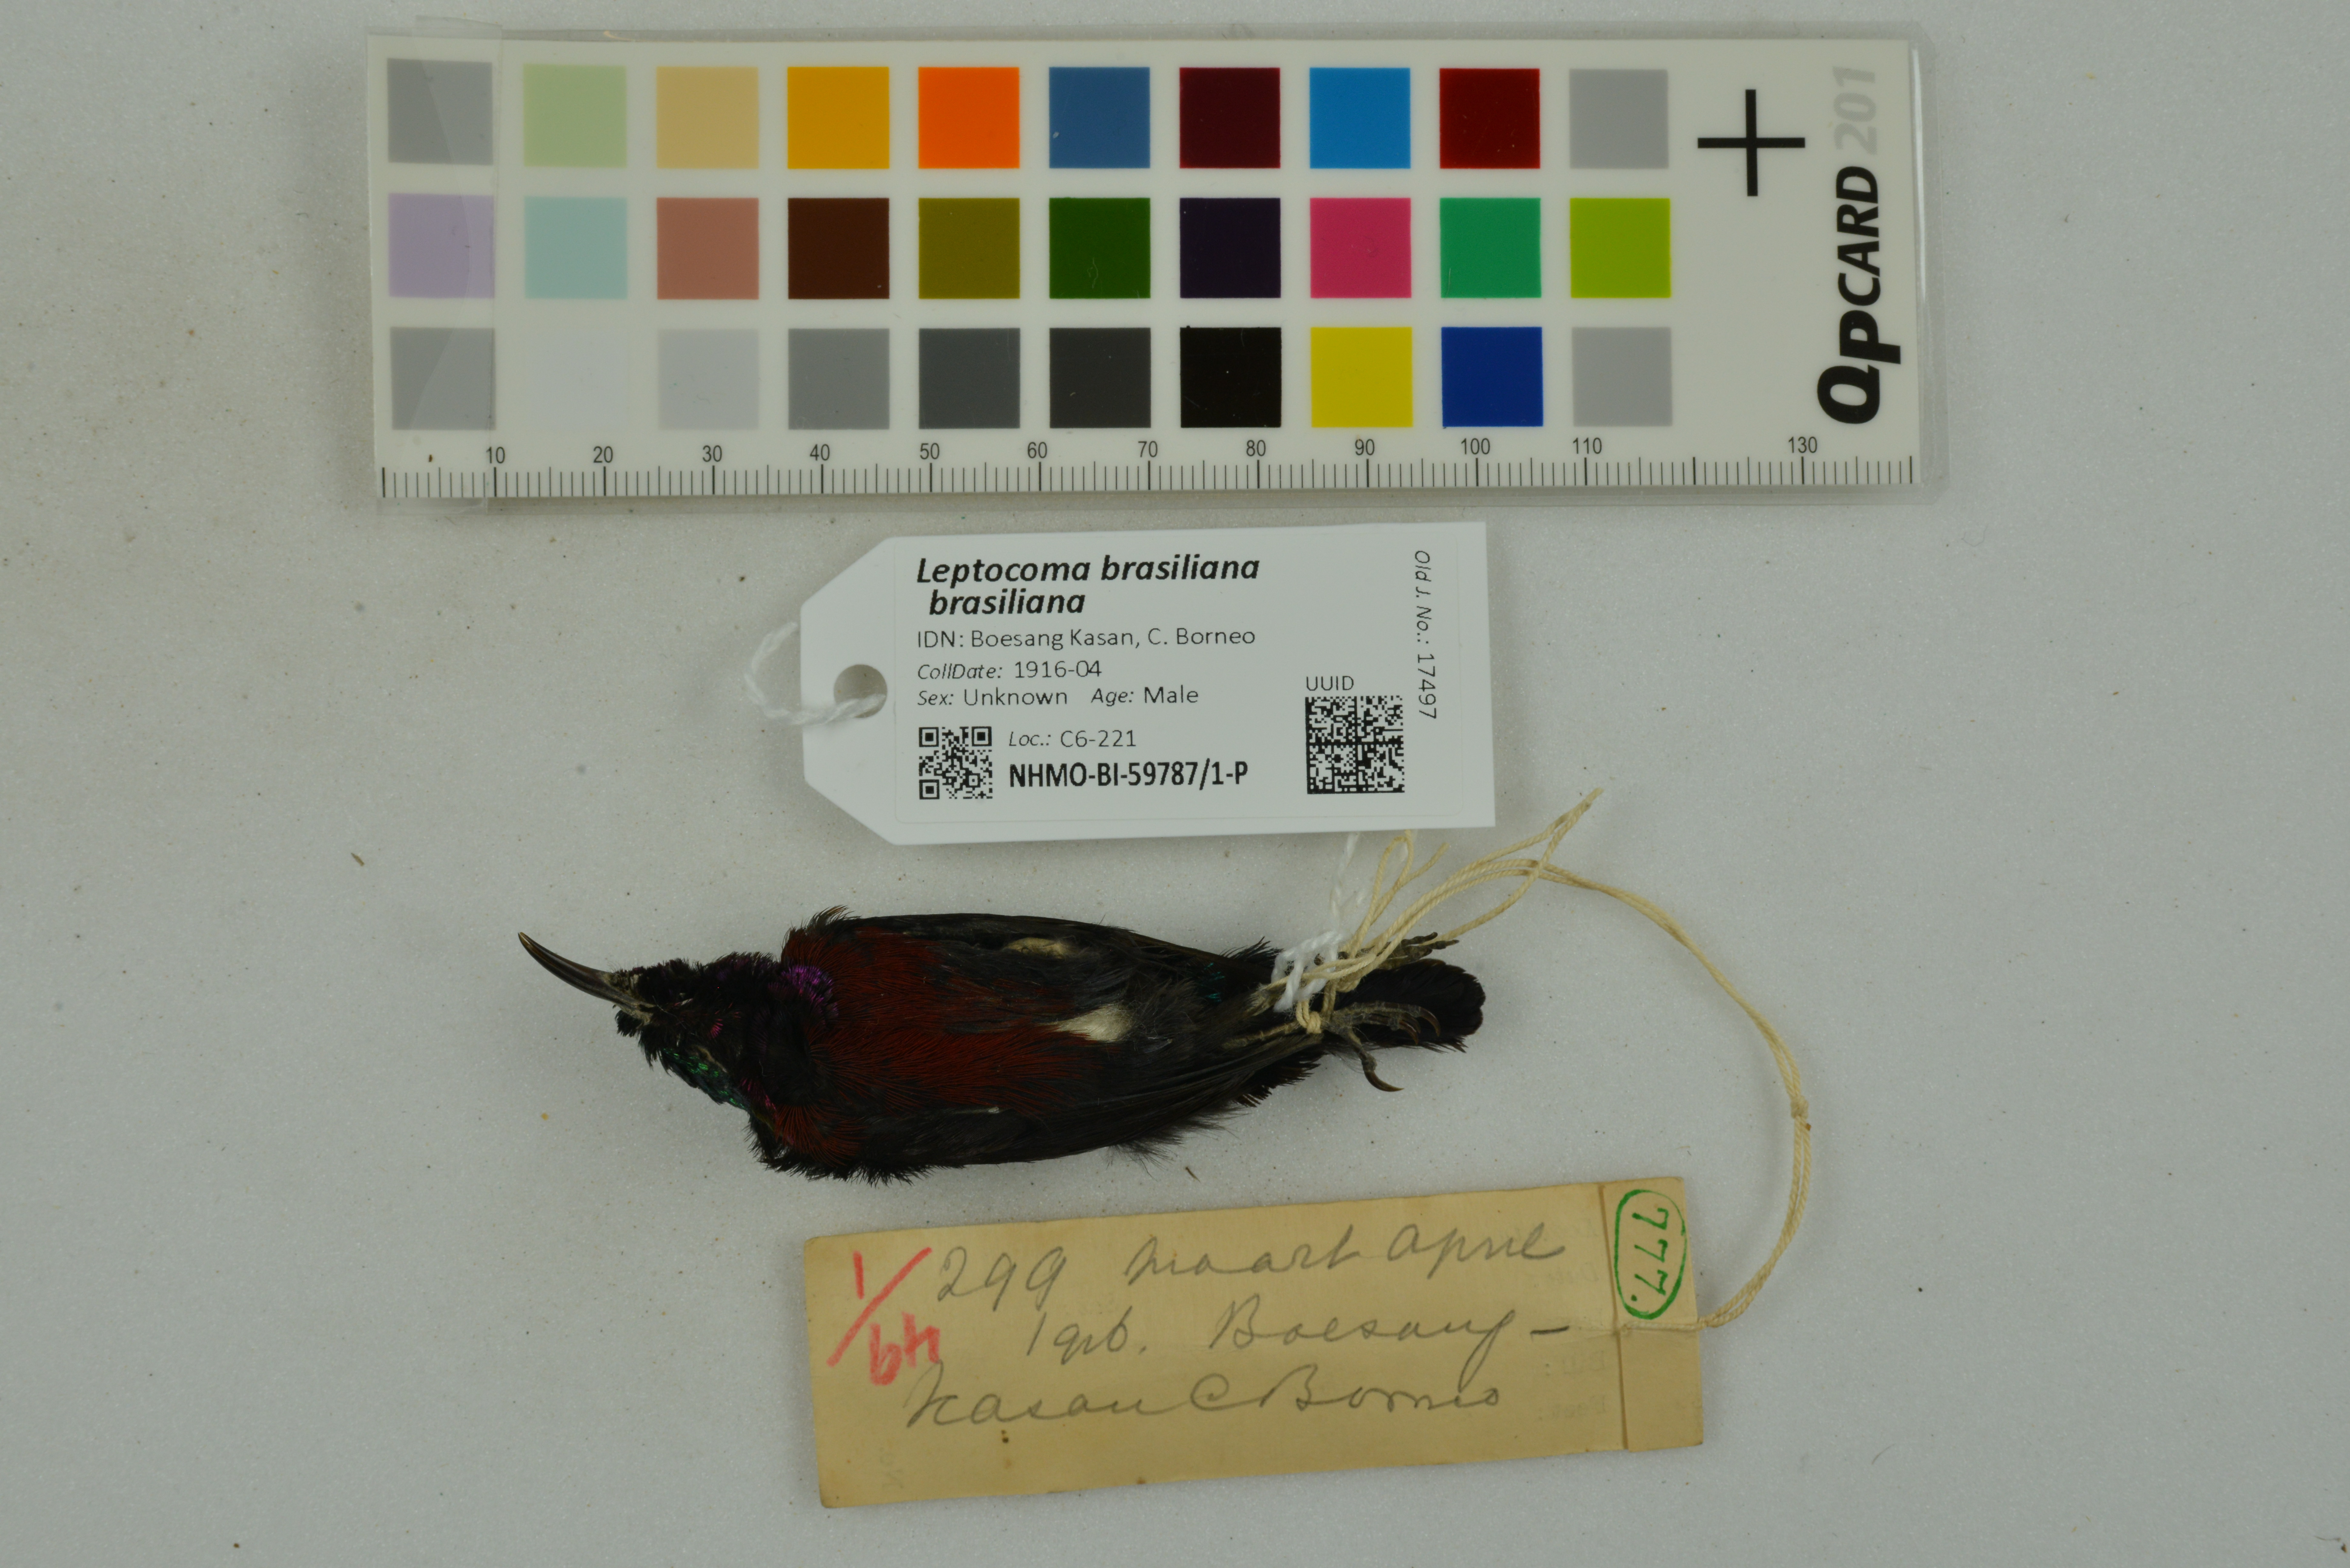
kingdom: Animalia
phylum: Chordata
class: Aves
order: Passeriformes
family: Nectariniidae
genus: Leptocoma
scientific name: Leptocoma brasiliana
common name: Van hasselt's sunbird
